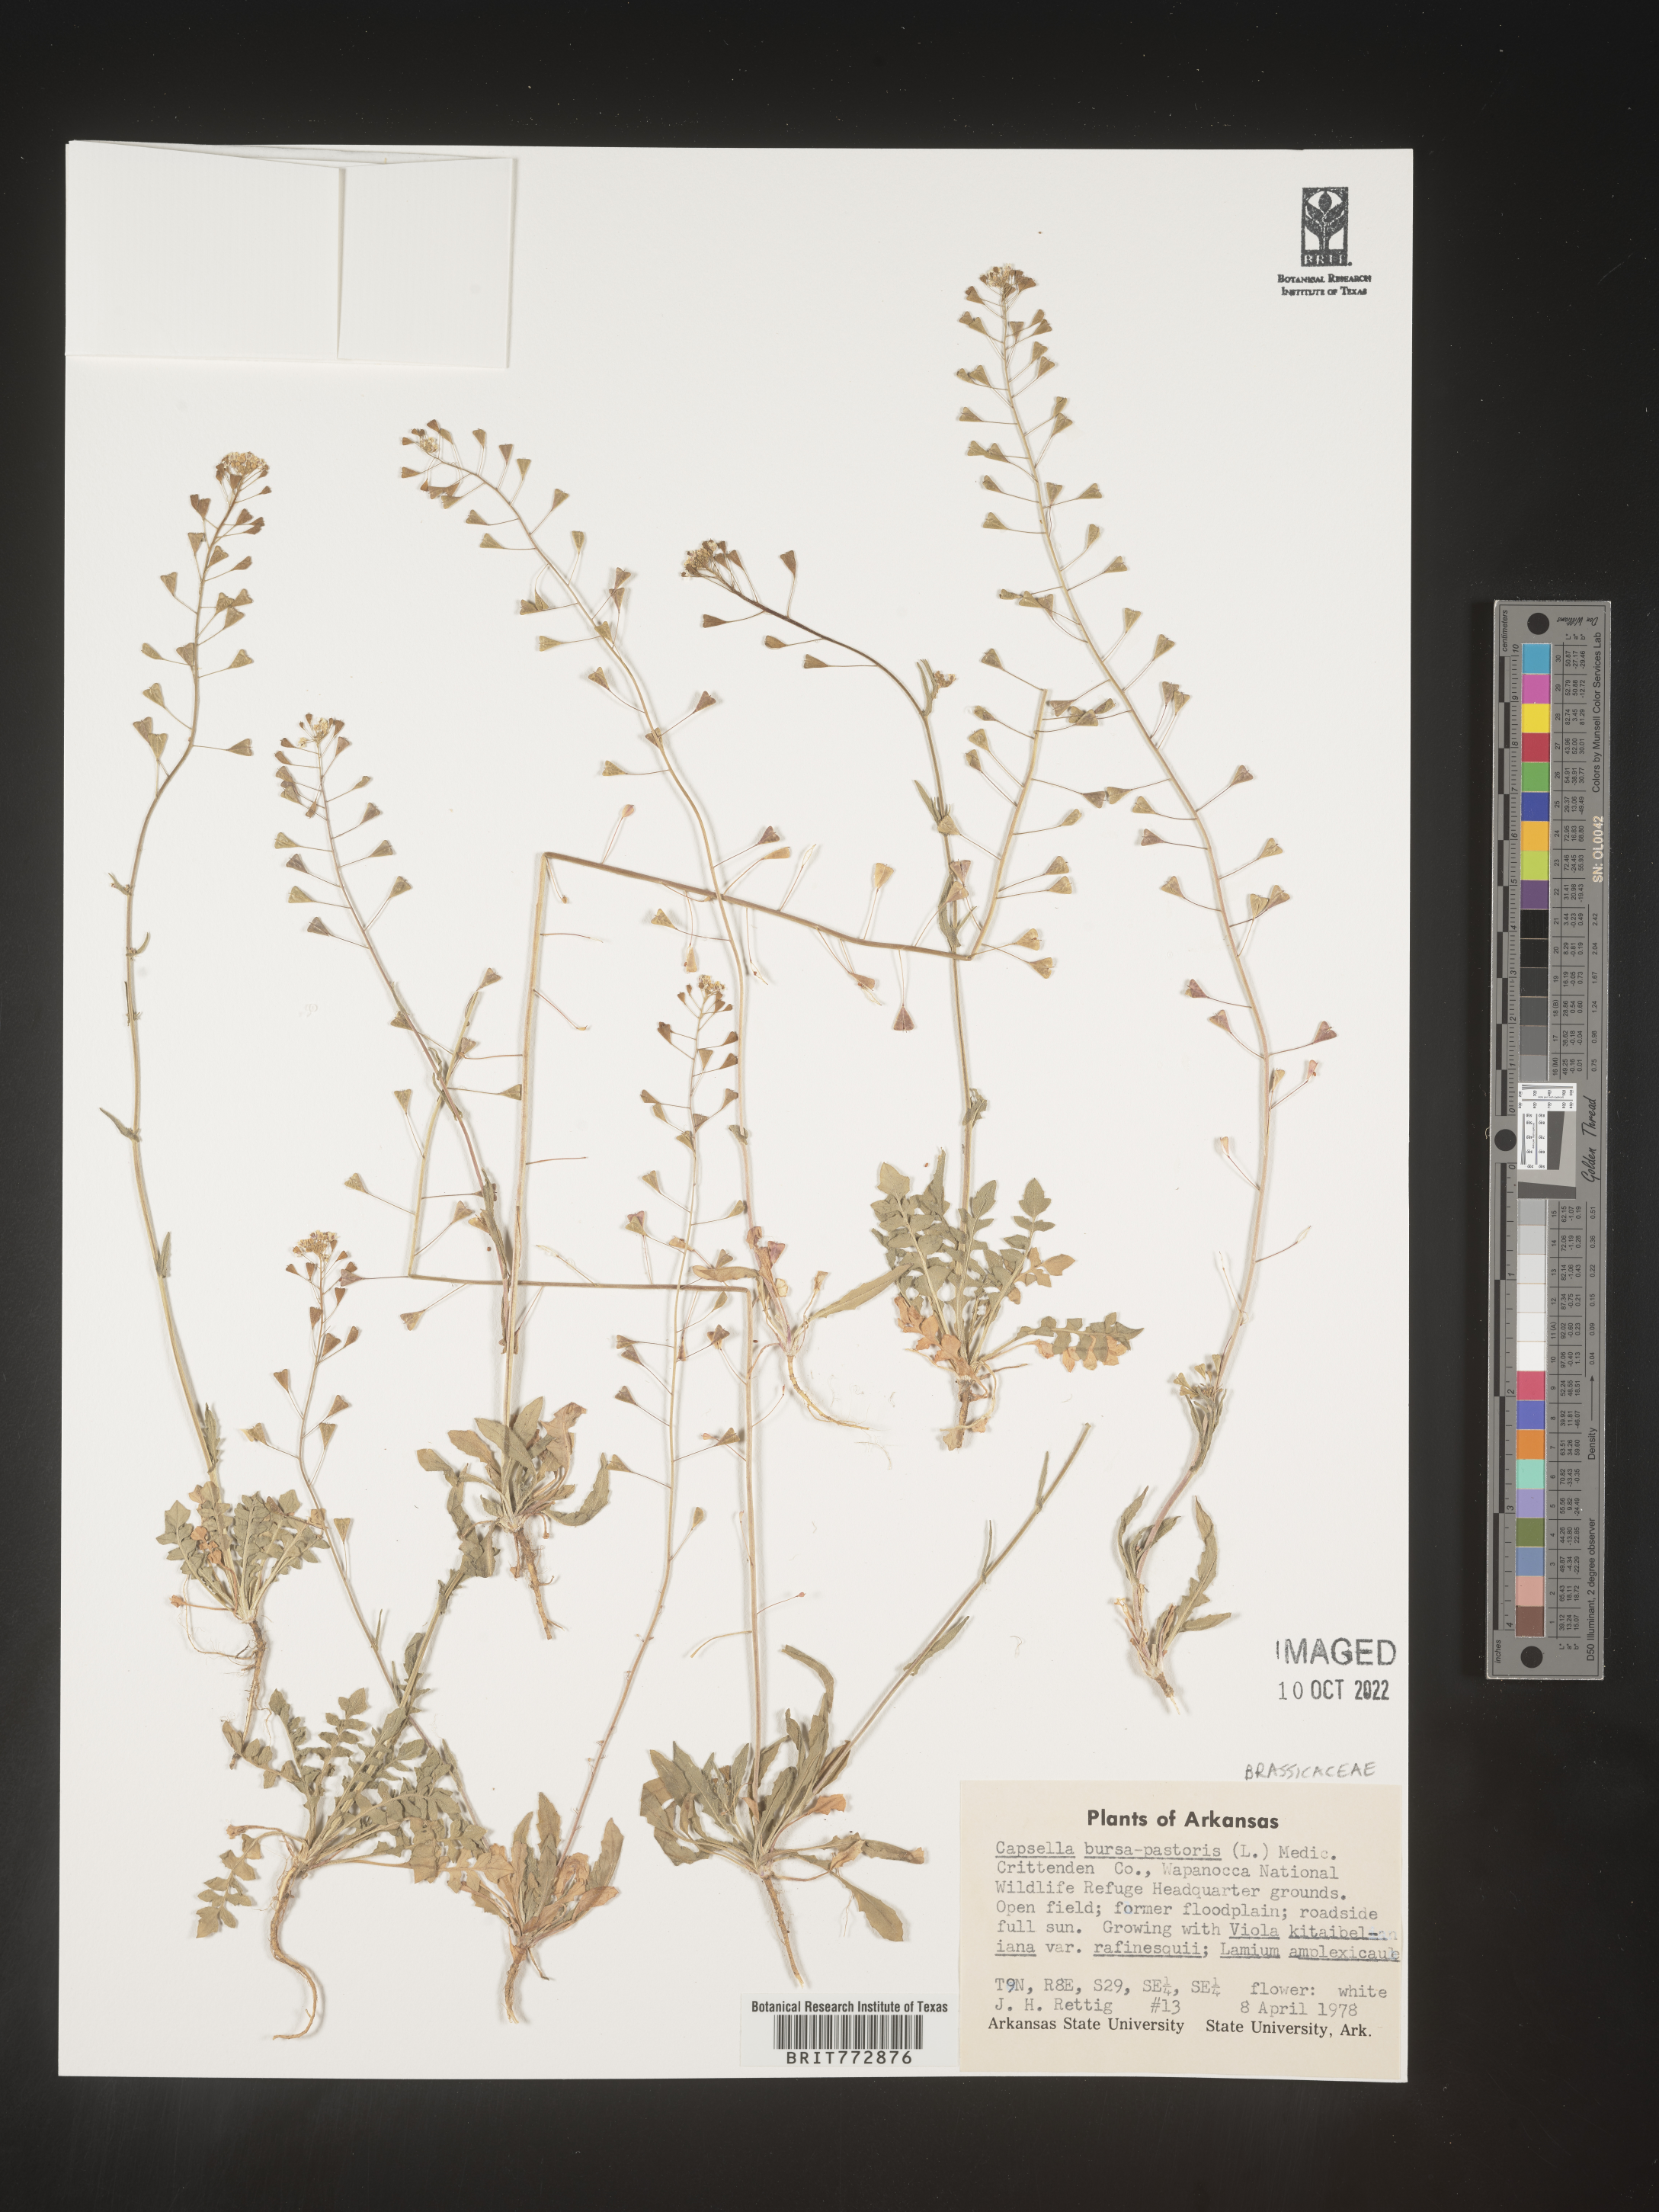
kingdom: Plantae
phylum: Tracheophyta
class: Magnoliopsida
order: Brassicales
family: Brassicaceae
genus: Capsella
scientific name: Capsella bursa-pastoris
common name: Shepherd's purse
